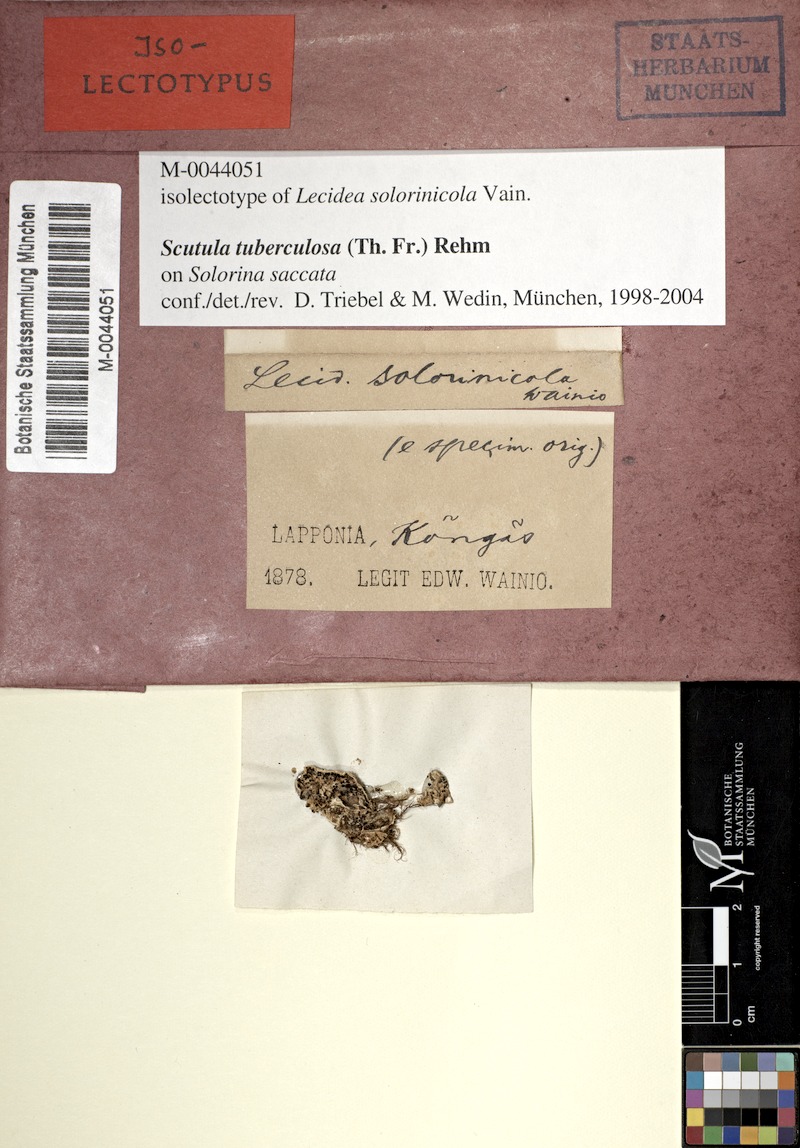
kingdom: Fungi
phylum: Ascomycota
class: Lecanoromycetes
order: Lecanorales
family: Byssolomataceae
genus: Scutula
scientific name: Scutula tuberculosa
